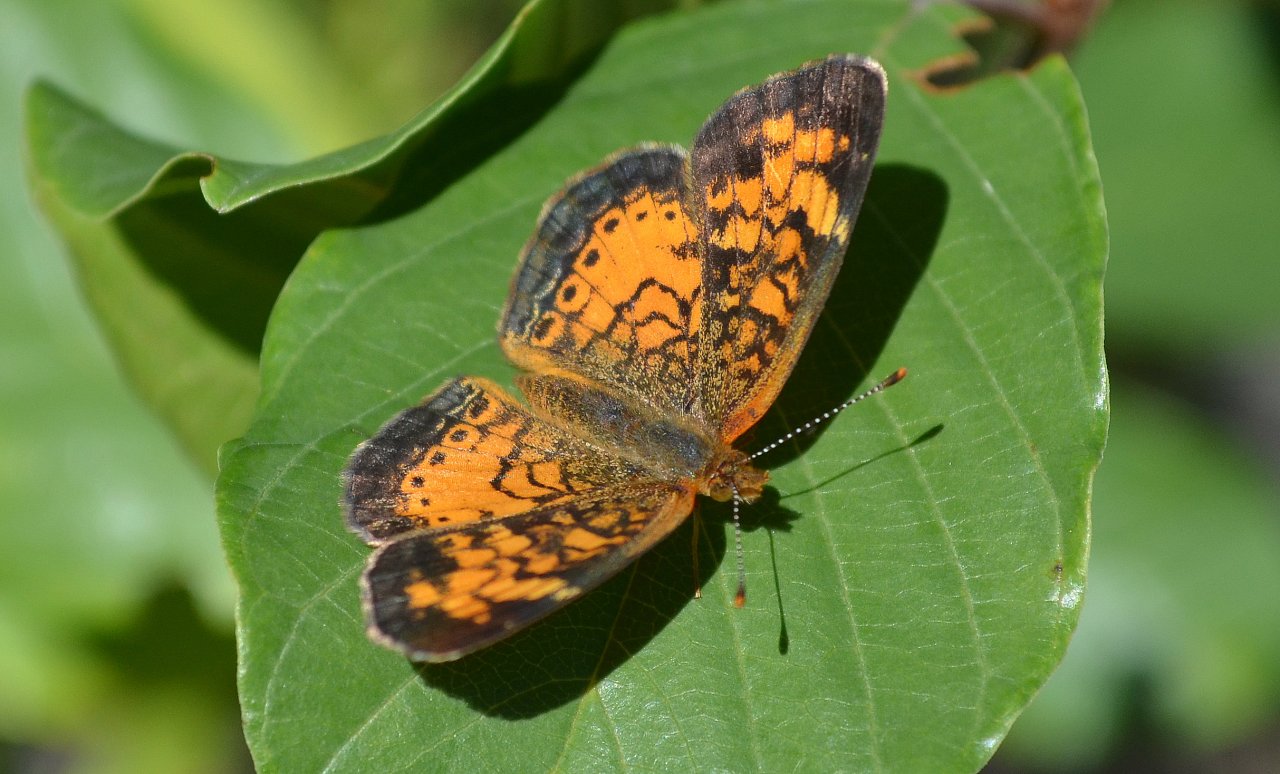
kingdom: Animalia
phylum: Arthropoda
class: Insecta
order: Lepidoptera
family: Nymphalidae
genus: Phyciodes
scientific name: Phyciodes tharos
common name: Northern Crescent
